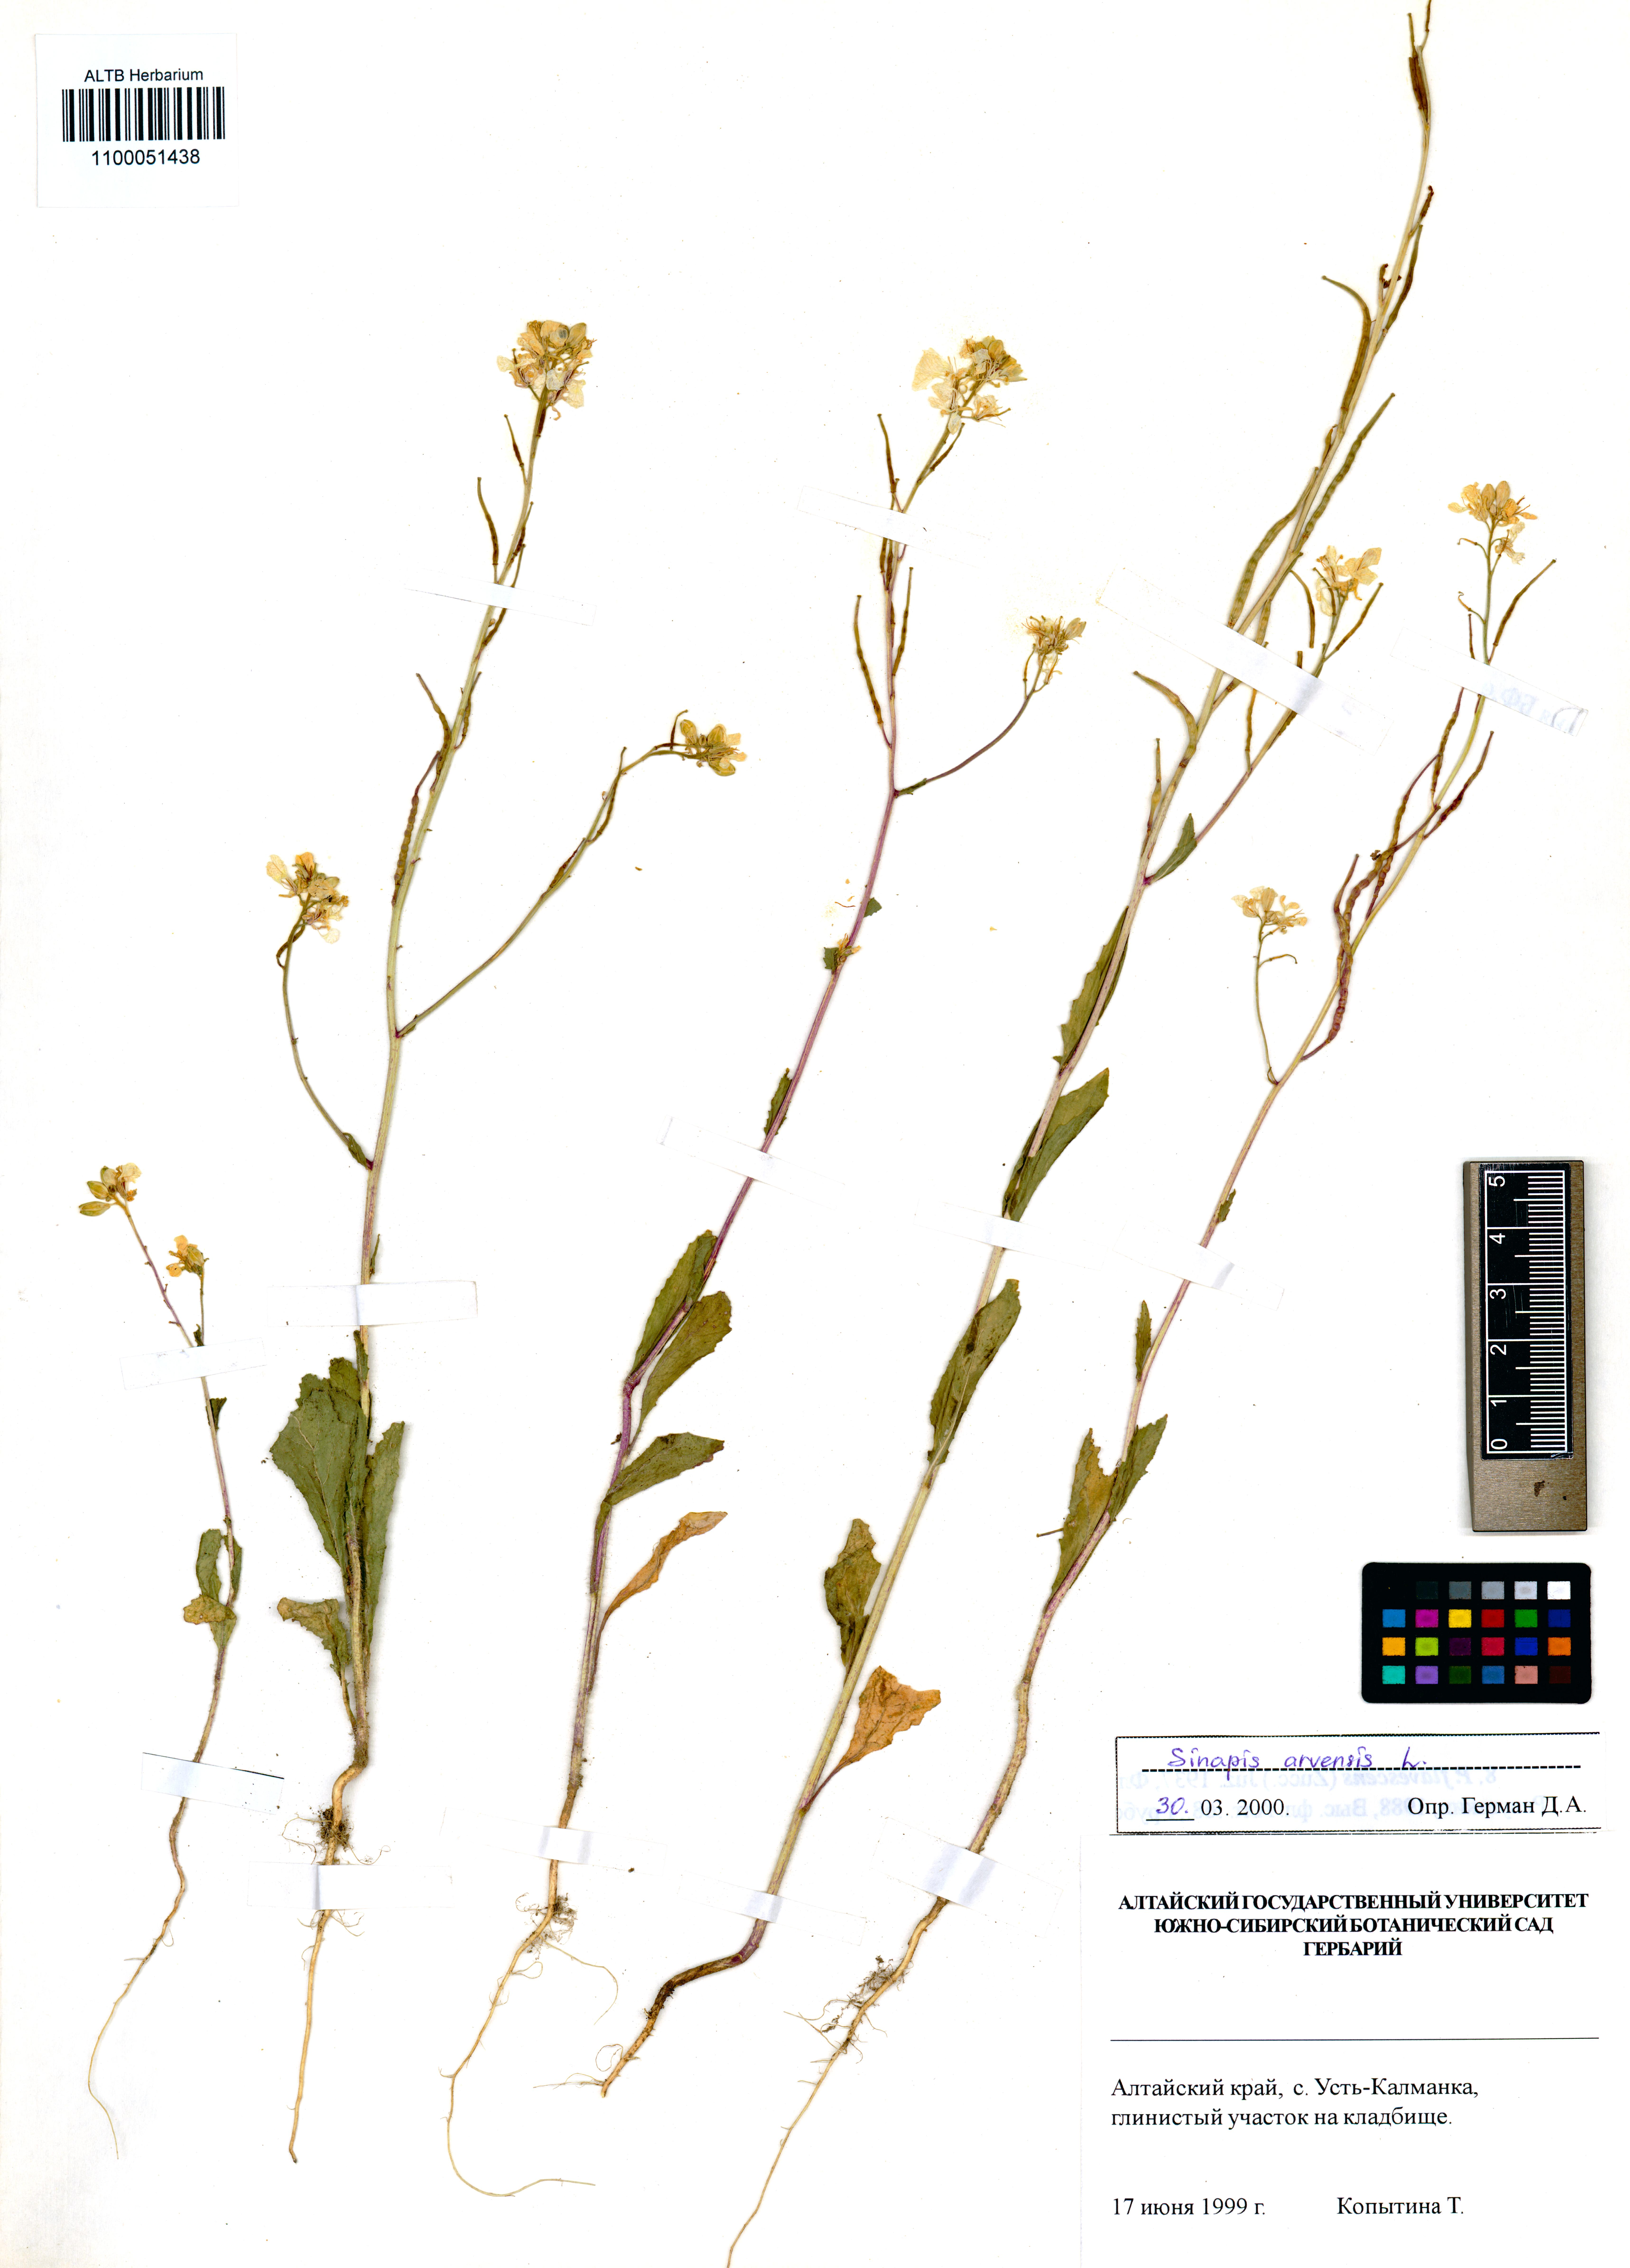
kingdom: Plantae
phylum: Tracheophyta
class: Magnoliopsida
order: Brassicales
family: Brassicaceae
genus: Sinapis
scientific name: Sinapis arvensis
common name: Charlock
